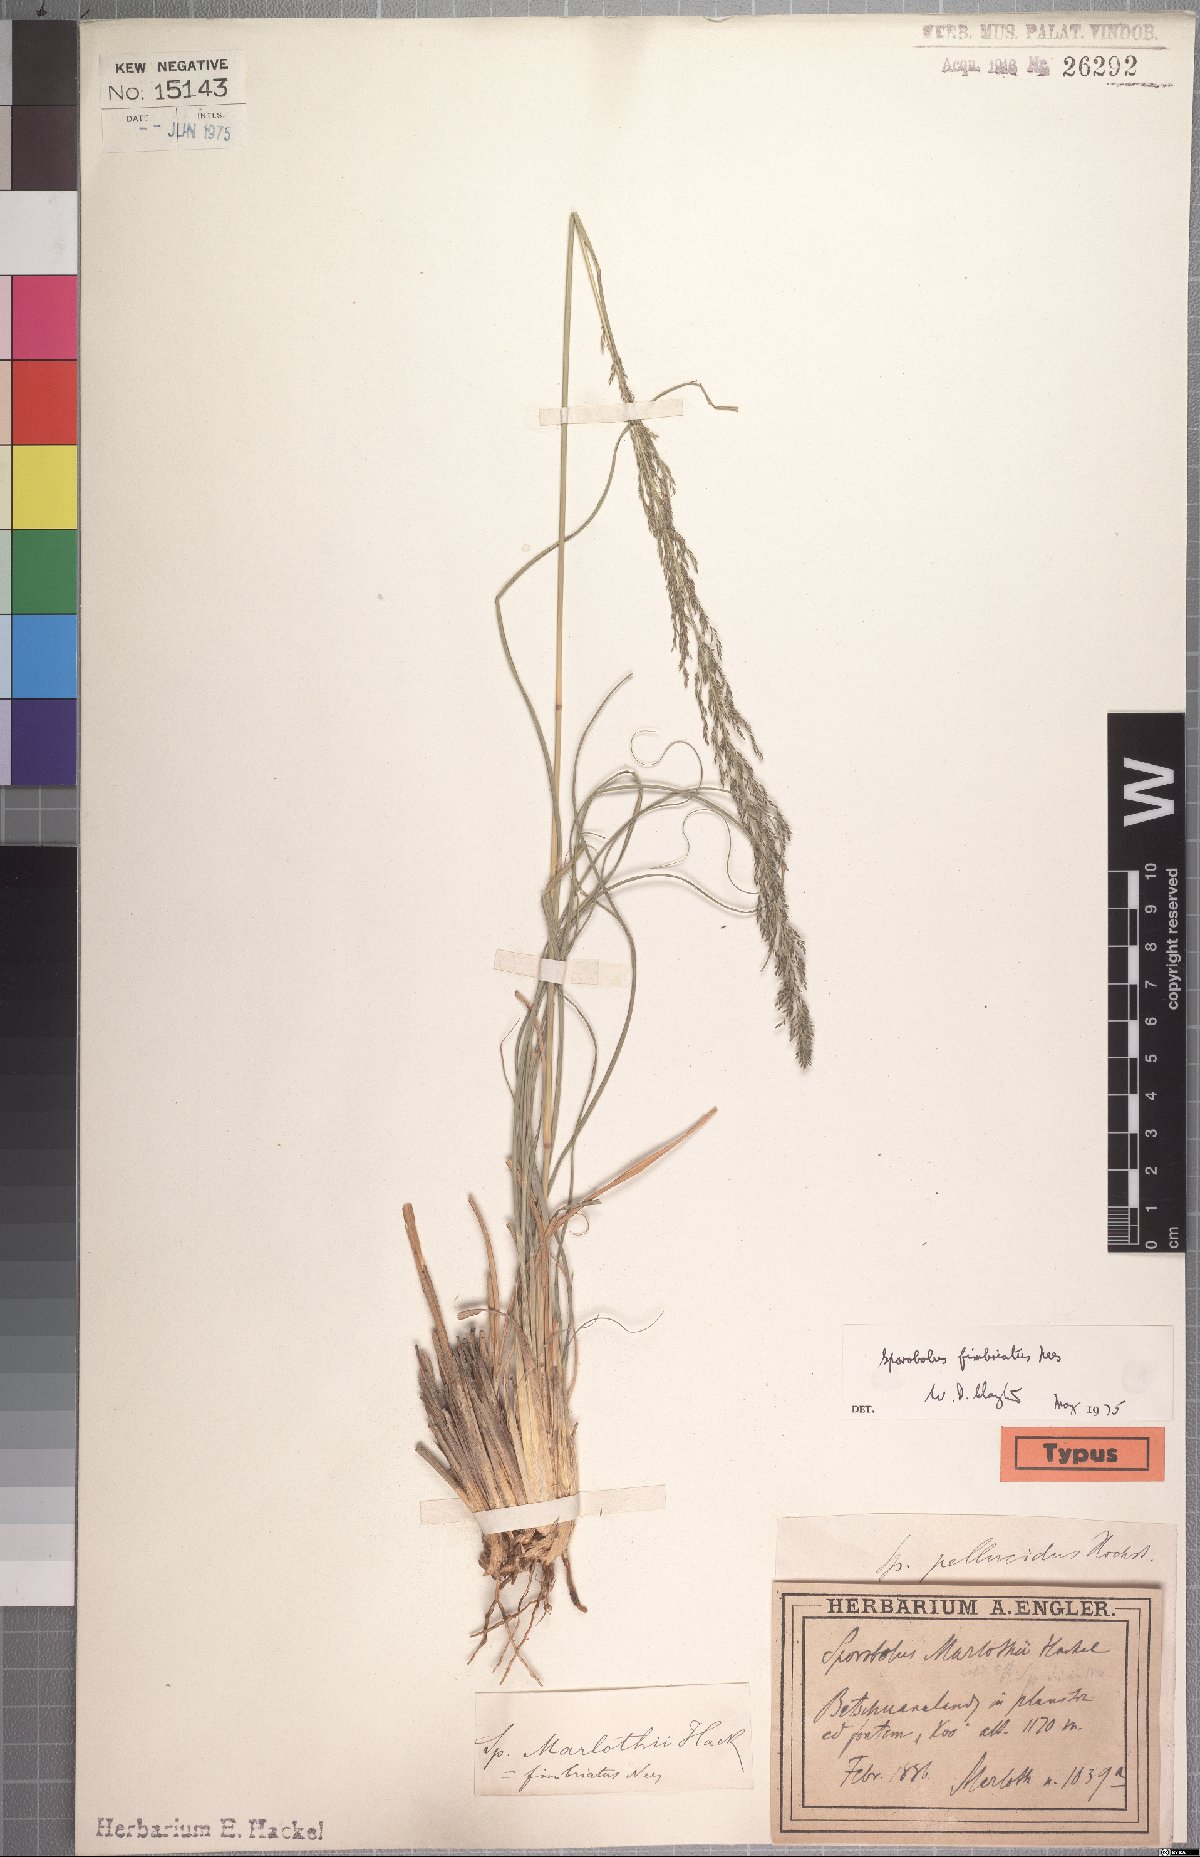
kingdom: Plantae
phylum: Tracheophyta
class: Liliopsida
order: Poales
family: Poaceae
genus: Sporobolus
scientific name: Sporobolus fimbriatus
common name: Fringed dropseed
